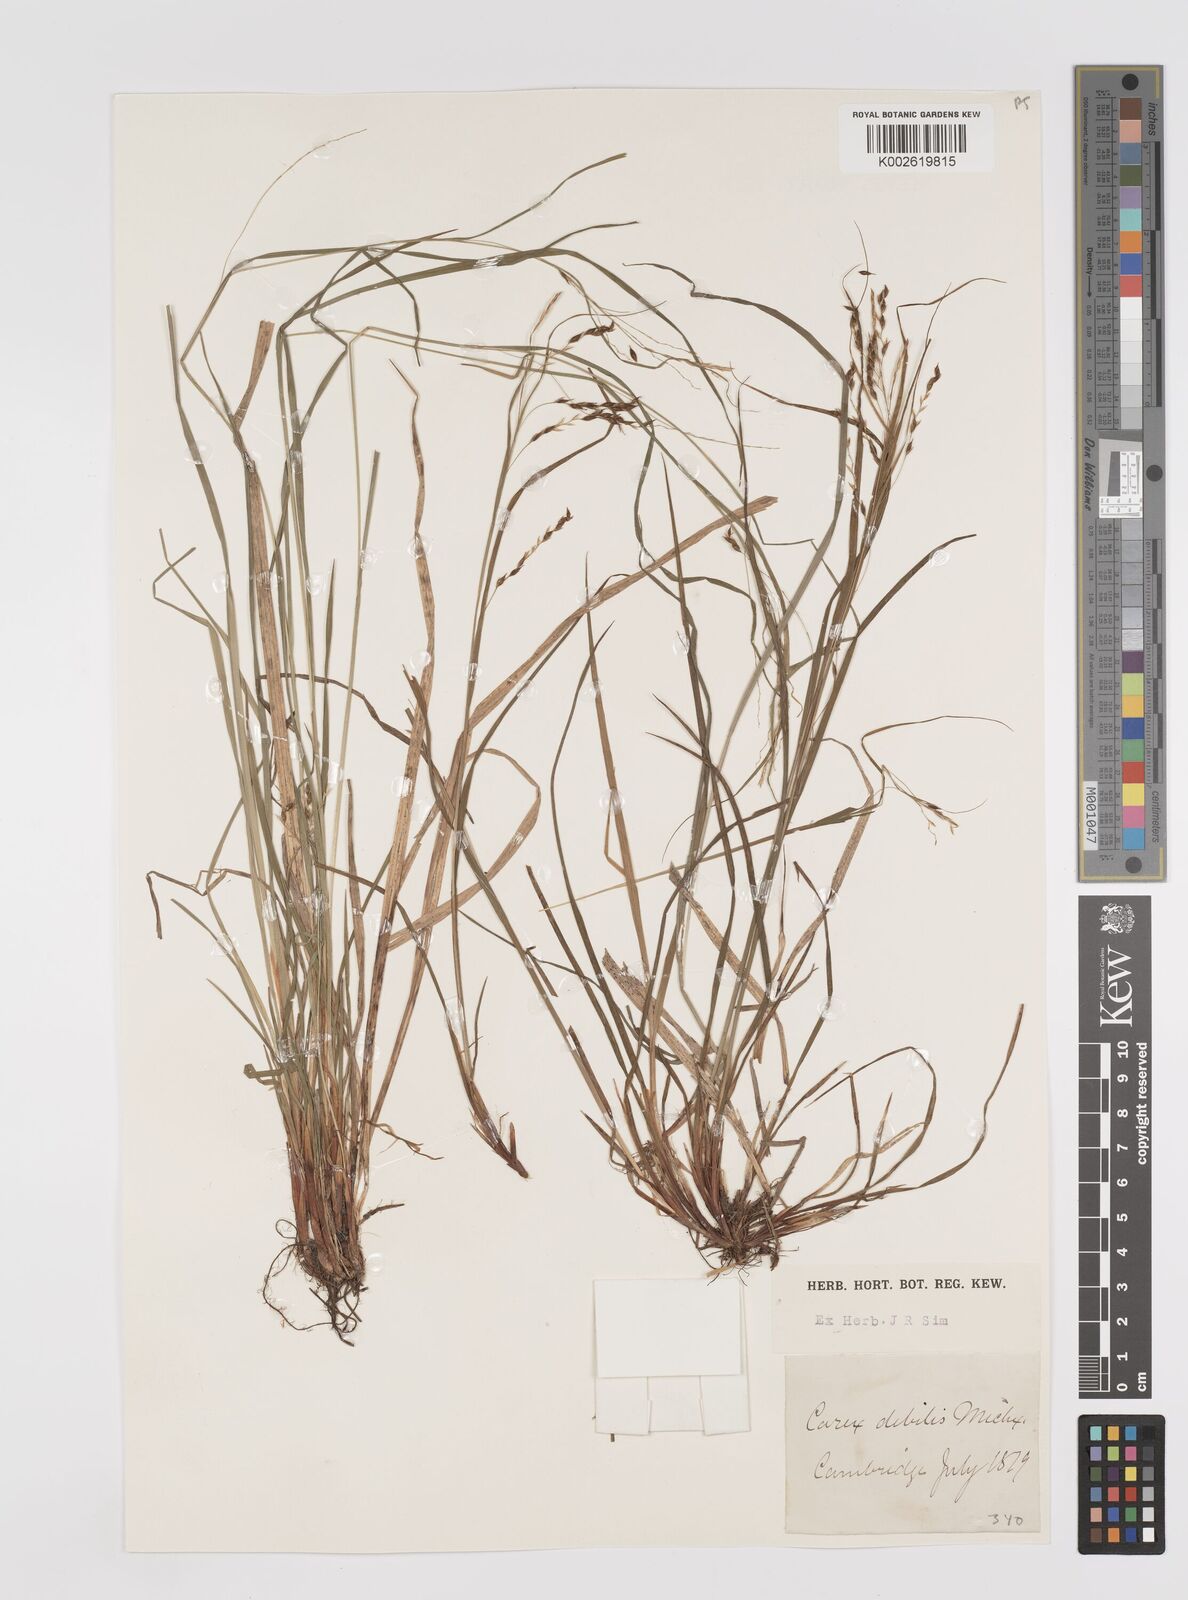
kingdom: Plantae
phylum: Tracheophyta
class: Liliopsida
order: Poales
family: Cyperaceae
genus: Carex
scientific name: Carex debilis
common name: White-edge sedge
